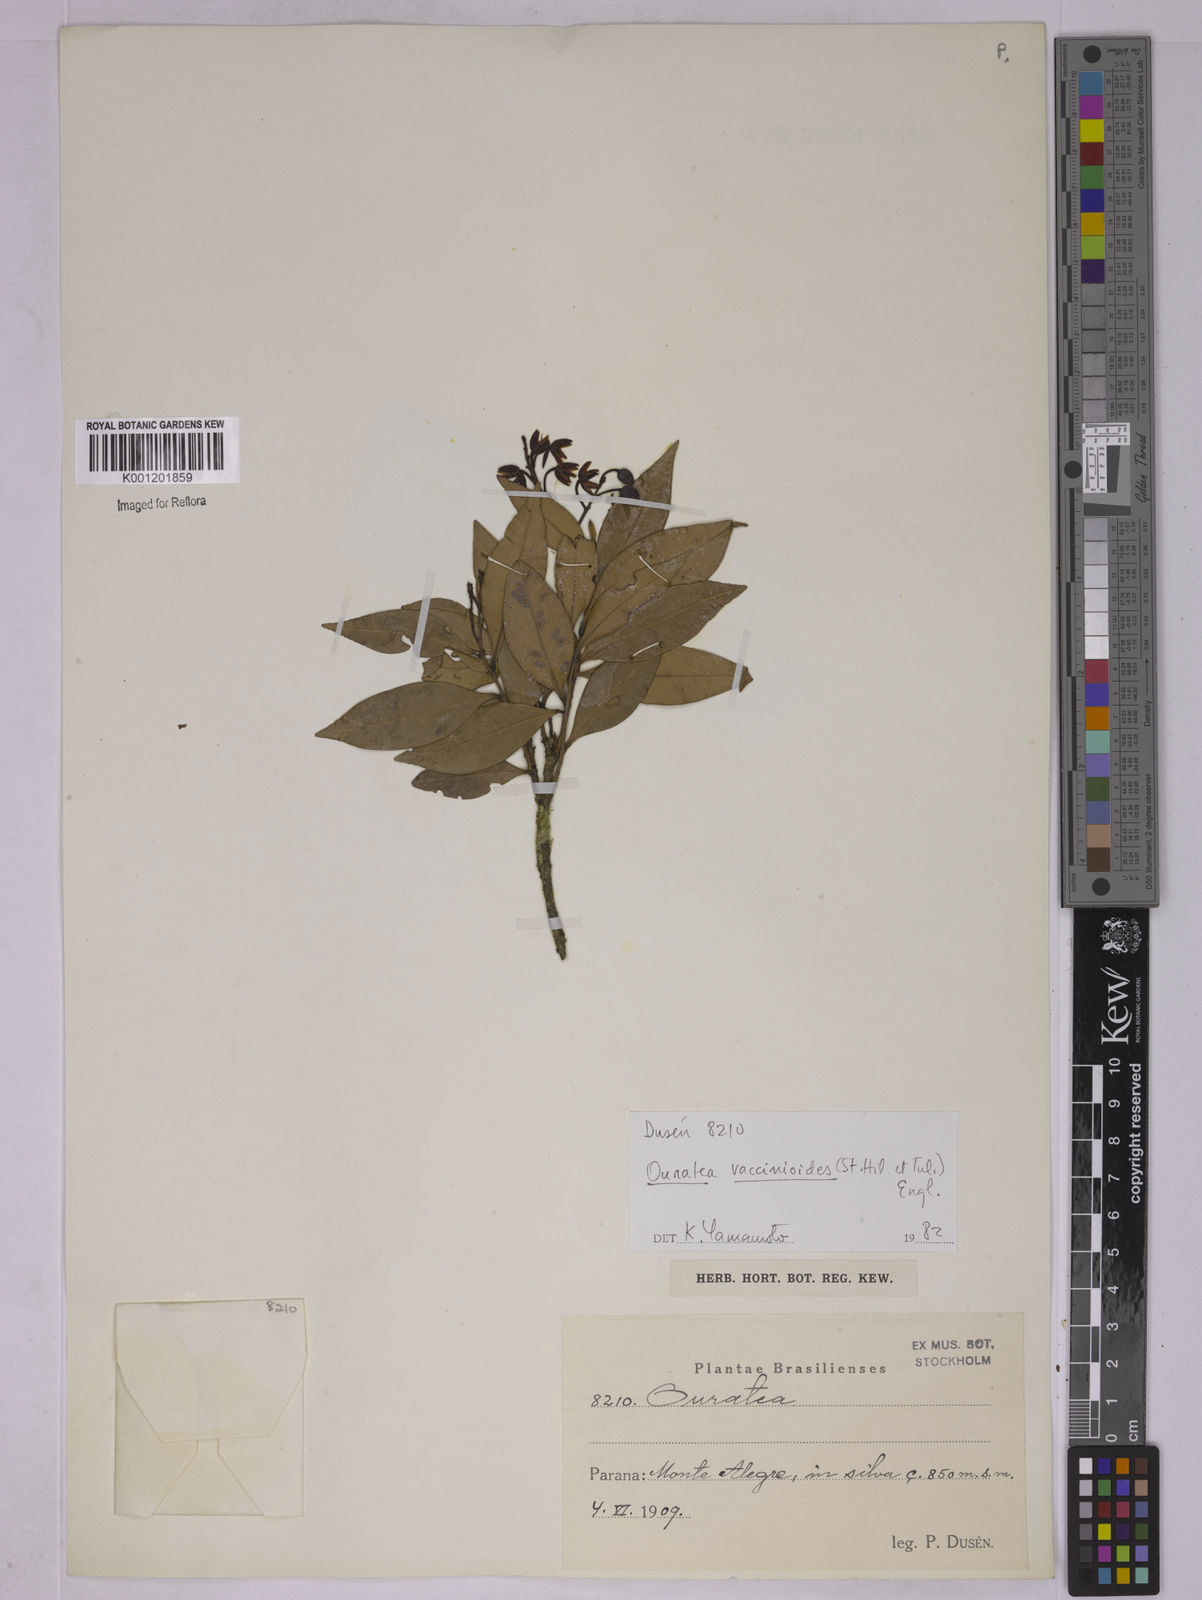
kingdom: Plantae
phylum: Tracheophyta
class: Magnoliopsida
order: Malpighiales
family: Ochnaceae
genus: Ouratea
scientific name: Ouratea vaccinioides
